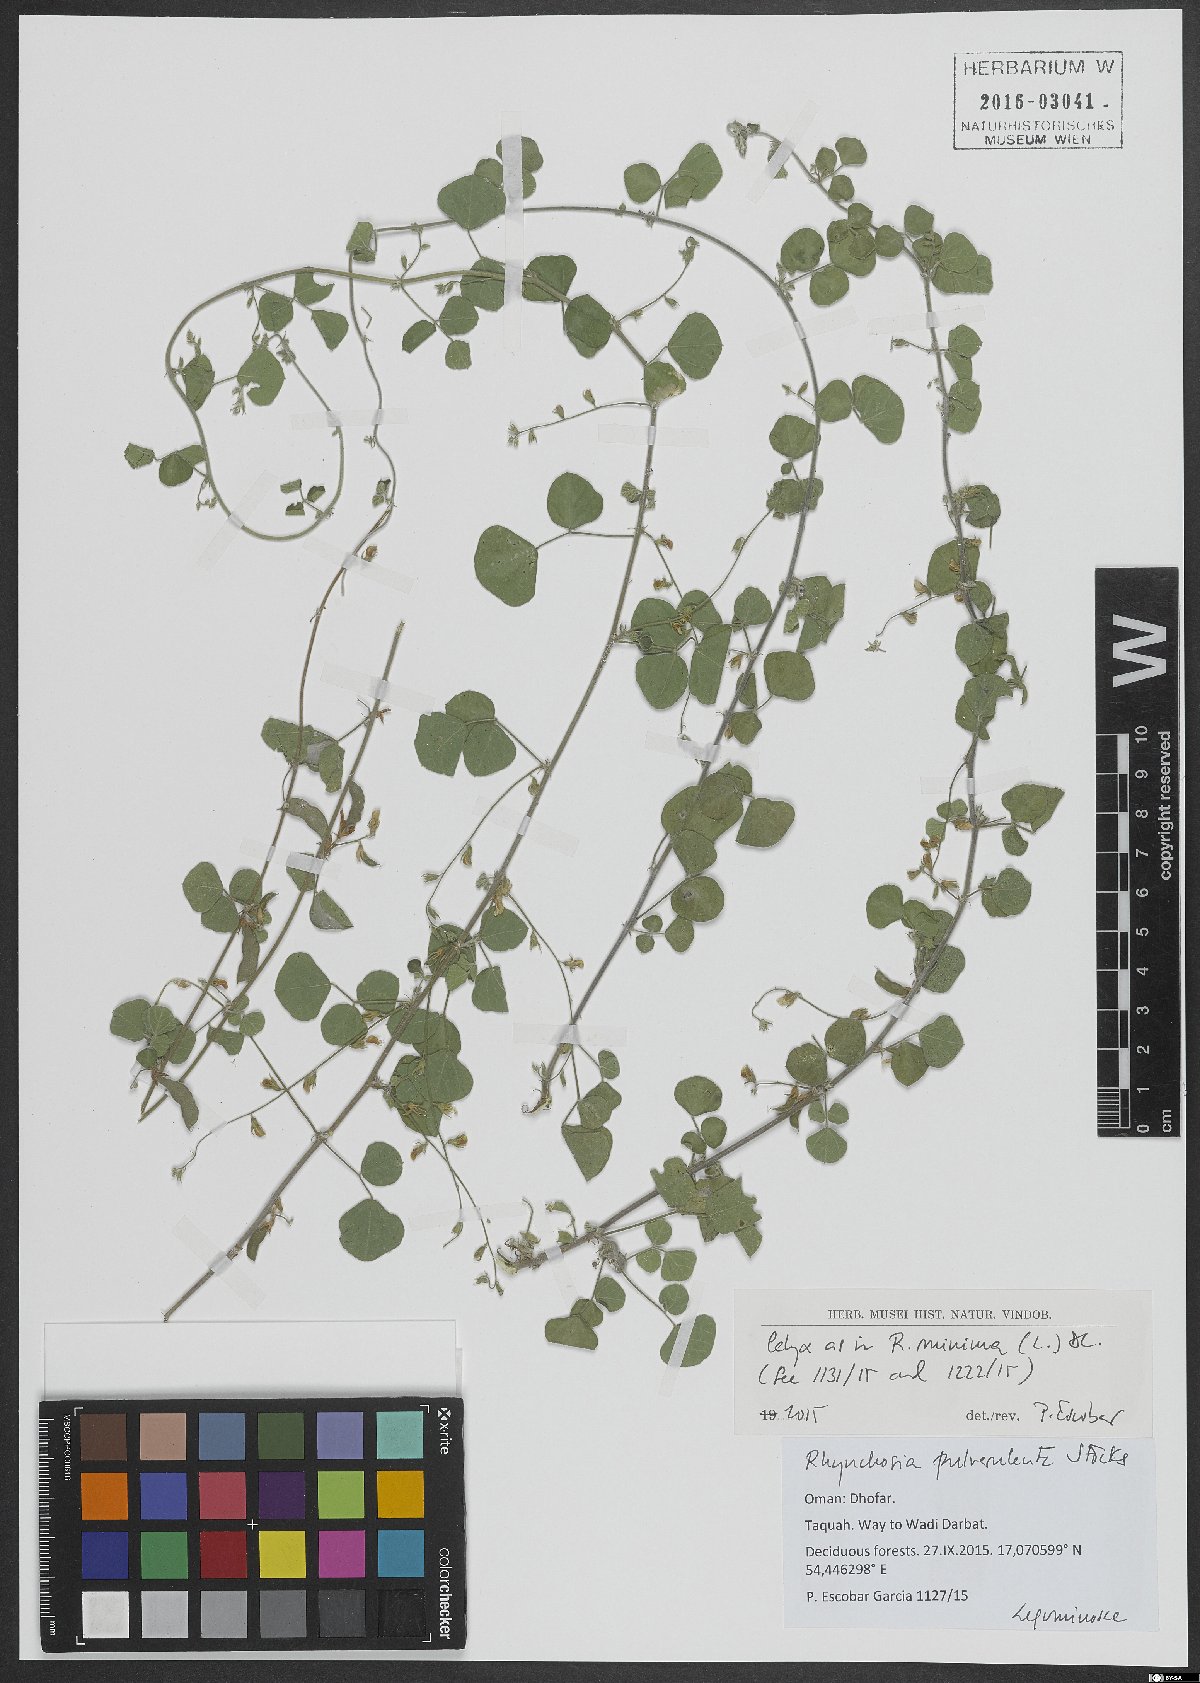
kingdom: Plantae
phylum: Tracheophyta
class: Magnoliopsida
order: Fabales
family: Fabaceae
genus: Rhynchosia
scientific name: Rhynchosia pulverulenta
